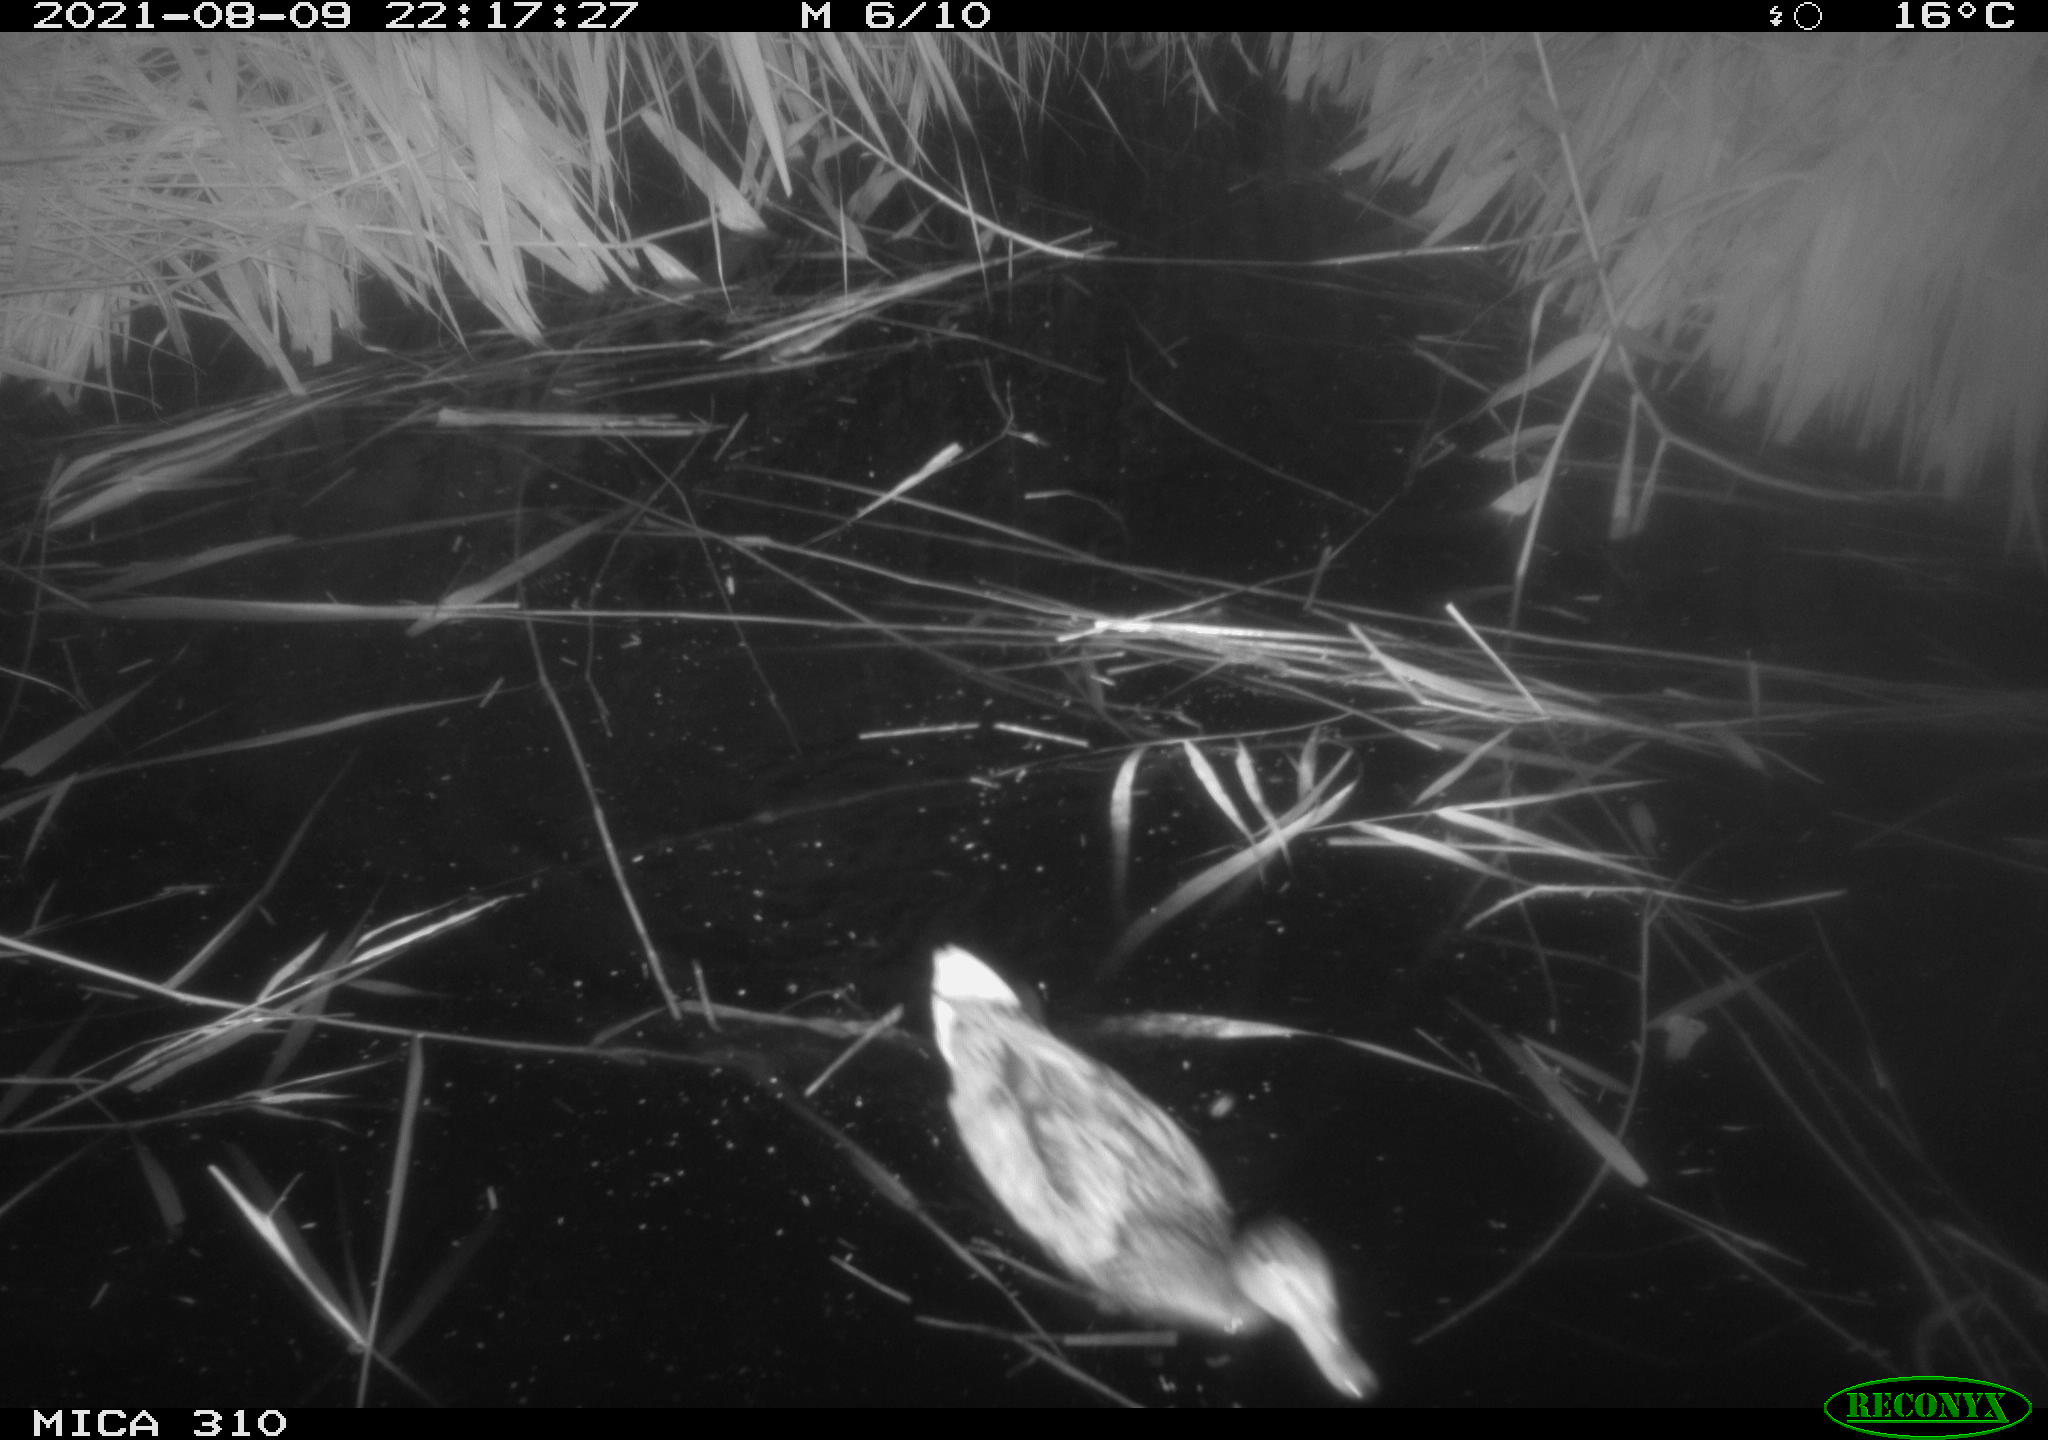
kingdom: Animalia
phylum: Chordata
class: Aves
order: Anseriformes
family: Anatidae
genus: Anas
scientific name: Anas platyrhynchos
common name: Mallard
